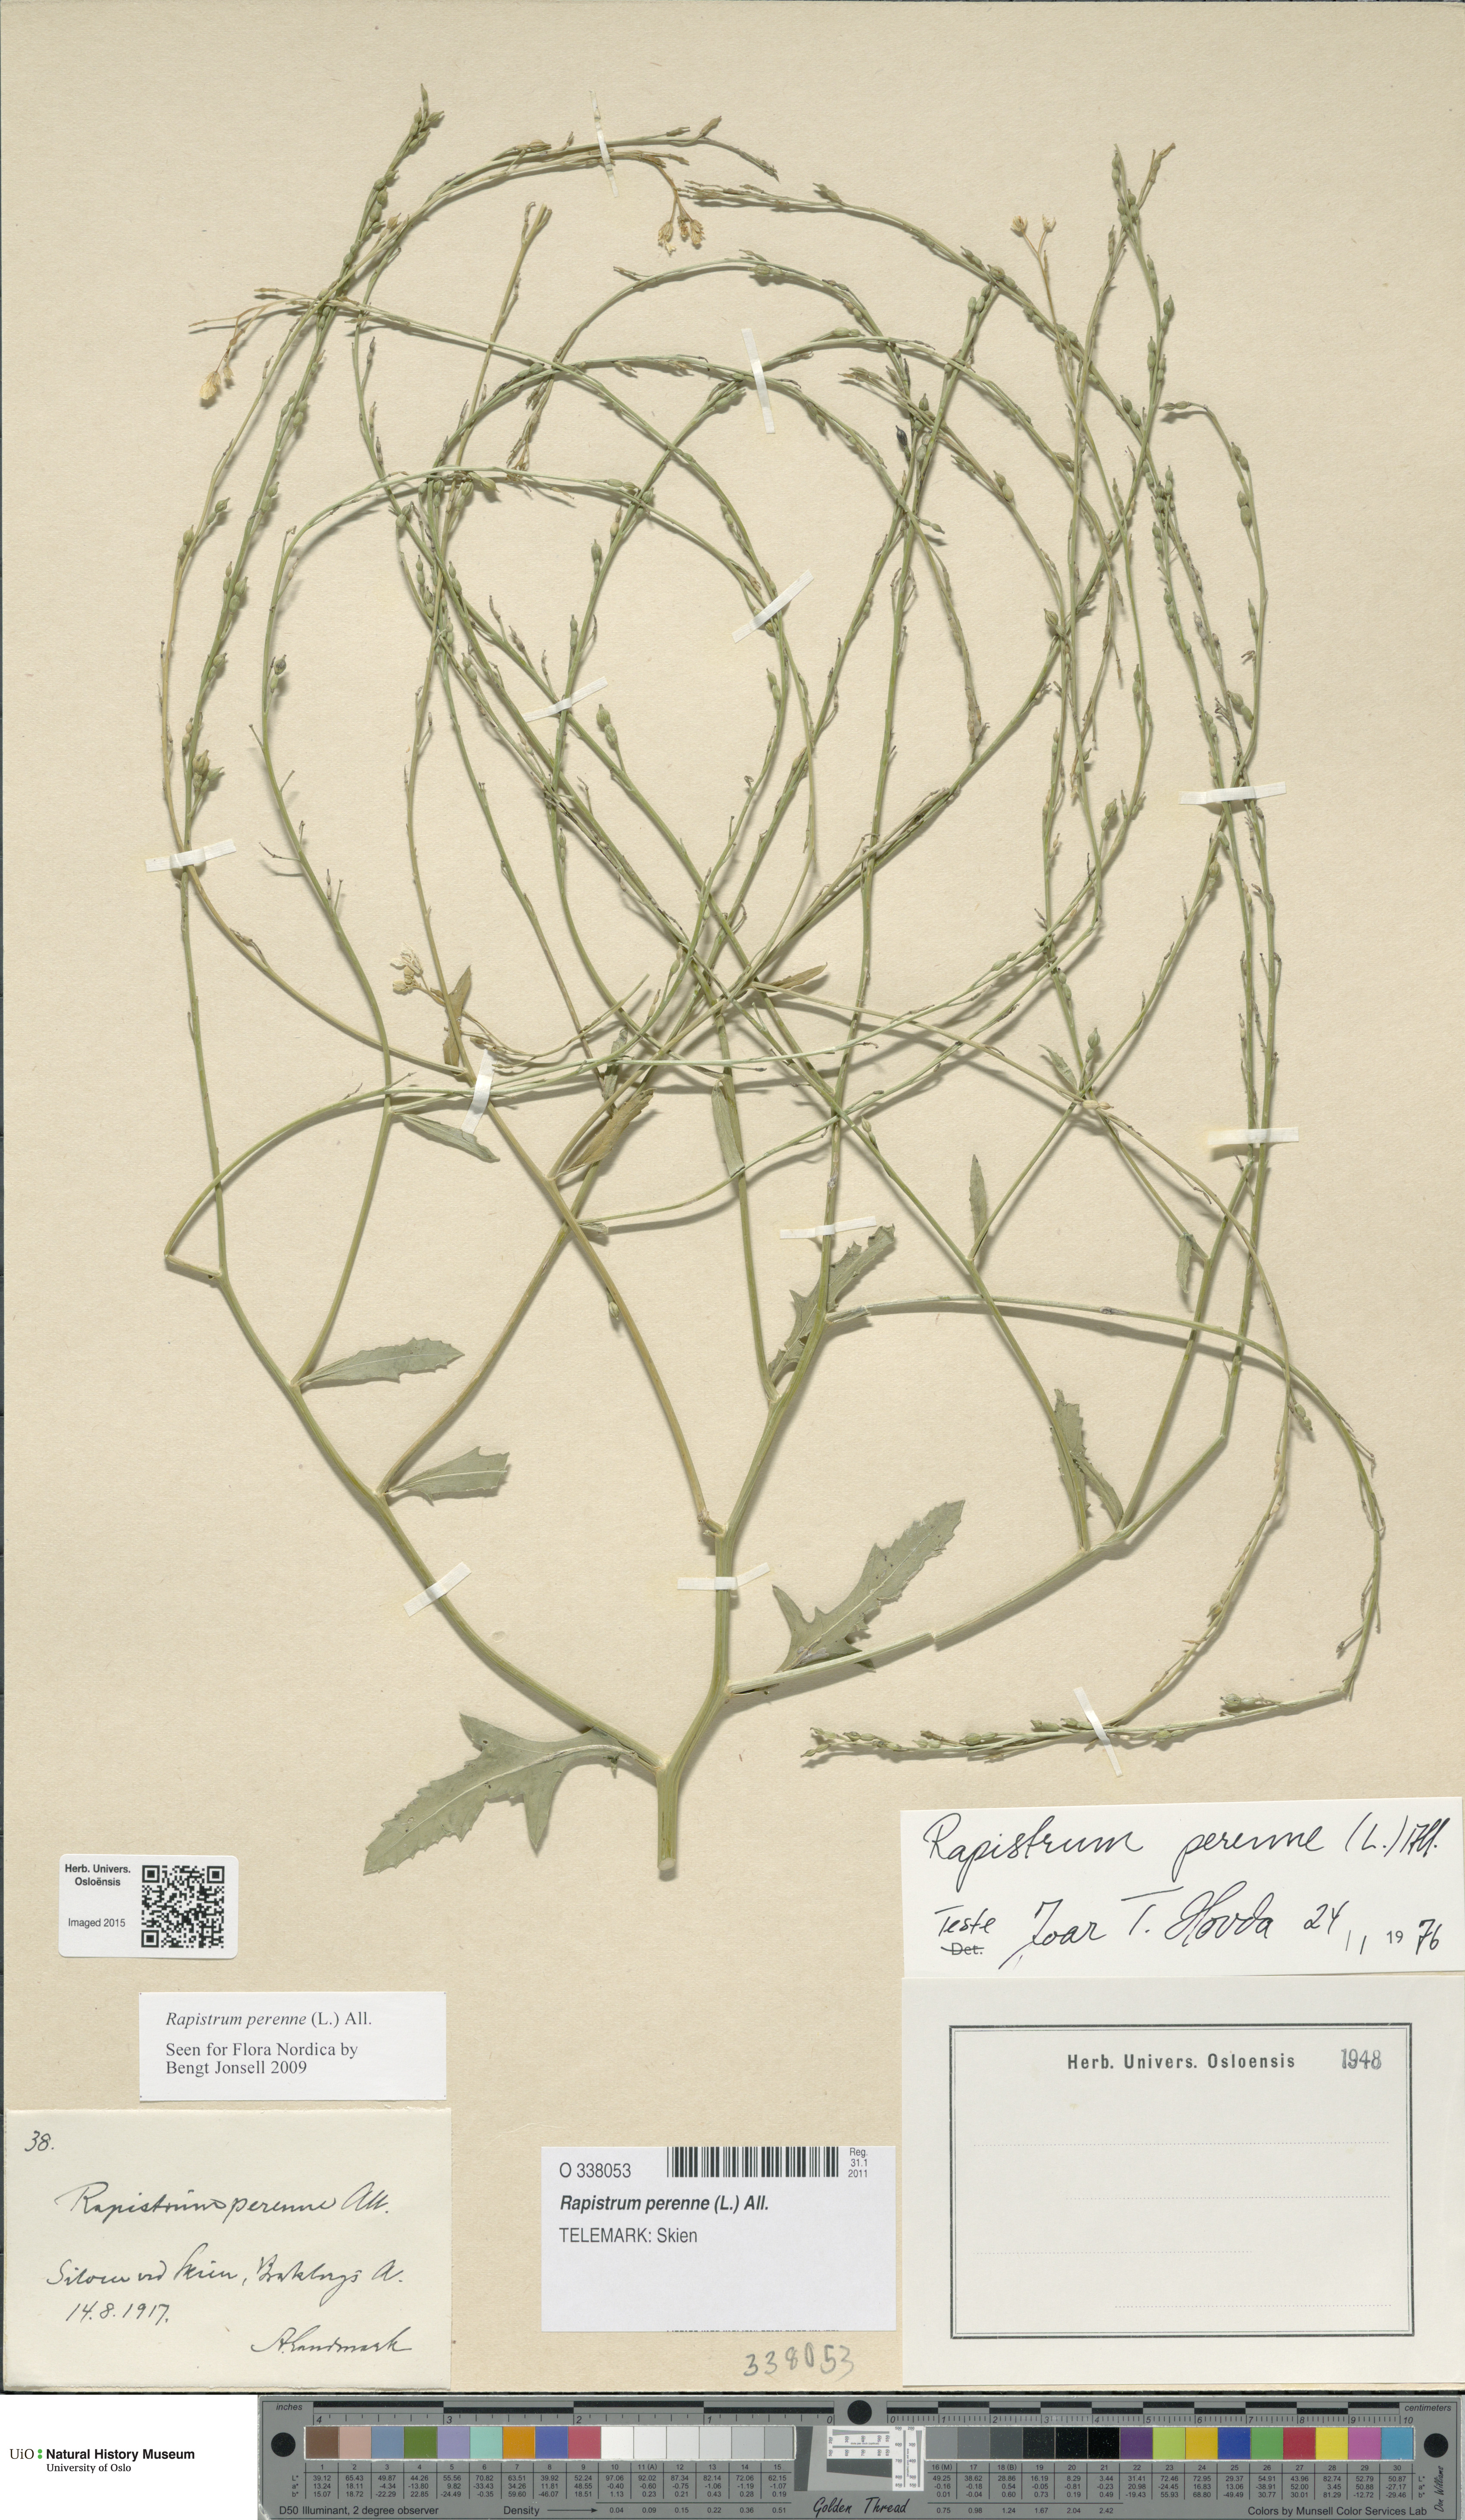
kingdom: Plantae
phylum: Tracheophyta
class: Magnoliopsida
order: Brassicales
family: Brassicaceae
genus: Rapistrum
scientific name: Rapistrum perenne
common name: Steppe cabbage
